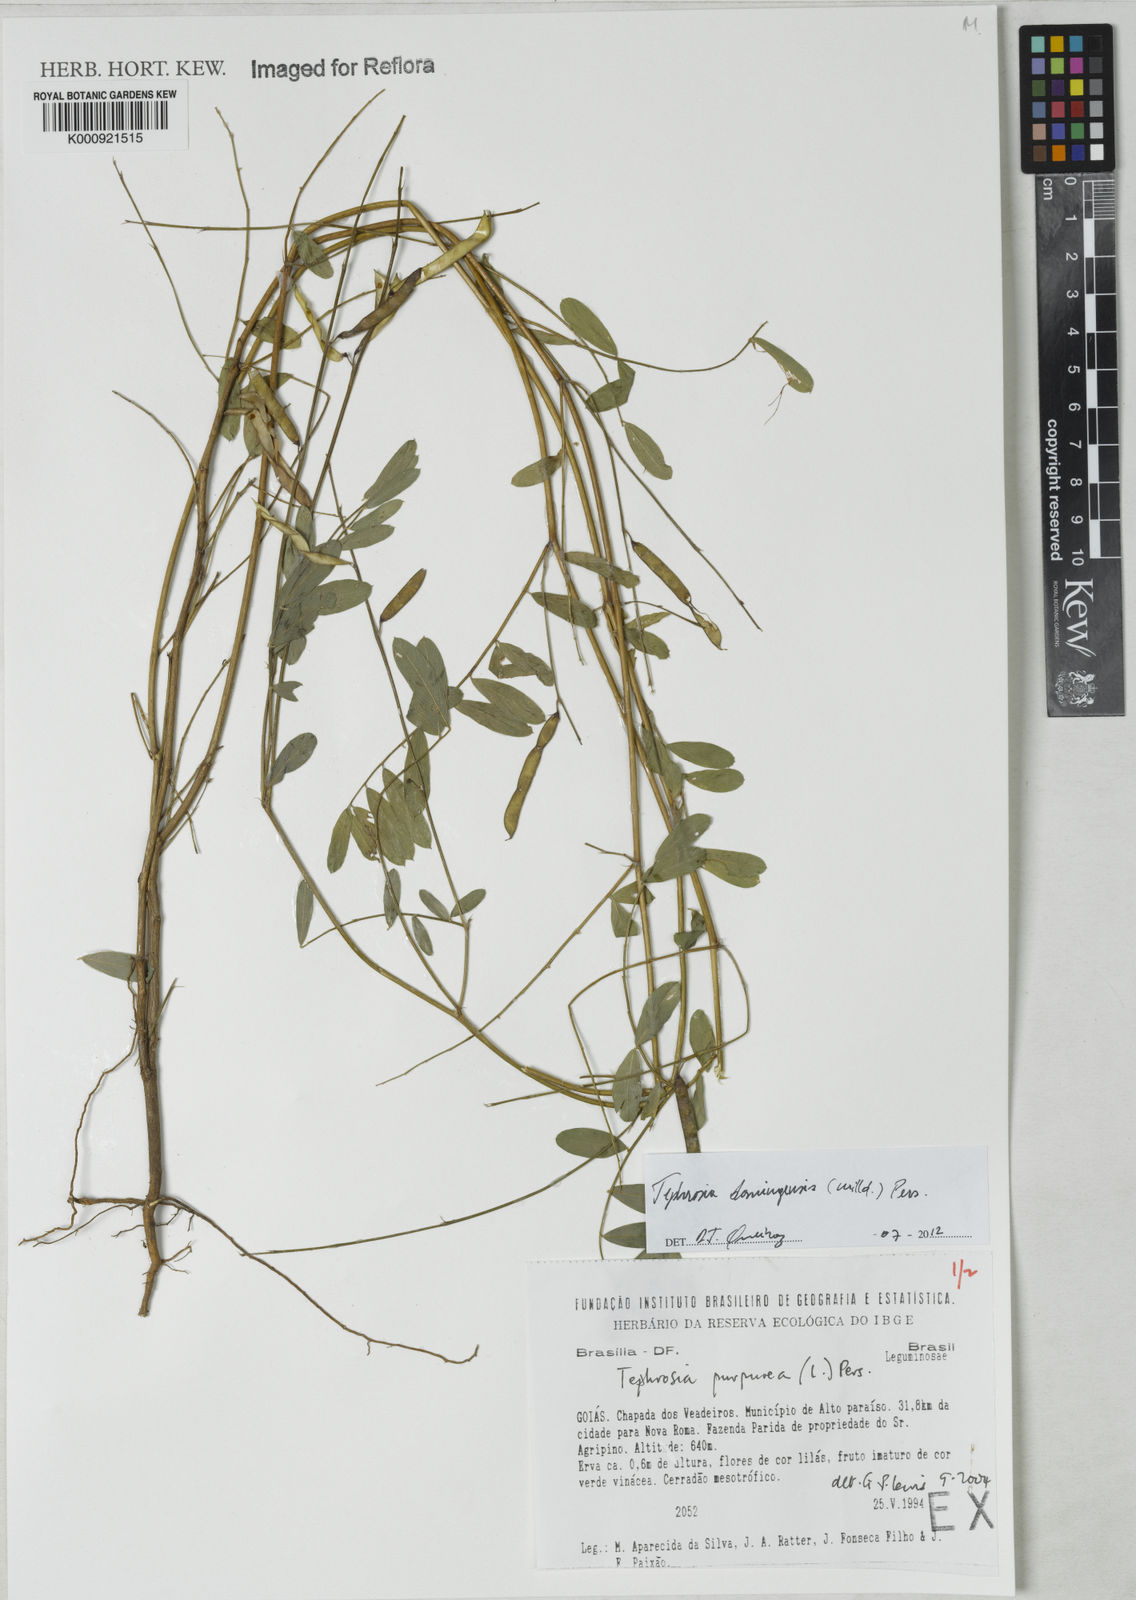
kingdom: Plantae
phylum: Tracheophyta
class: Magnoliopsida
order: Fabales
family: Fabaceae
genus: Tephrosia
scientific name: Tephrosia domingensis
